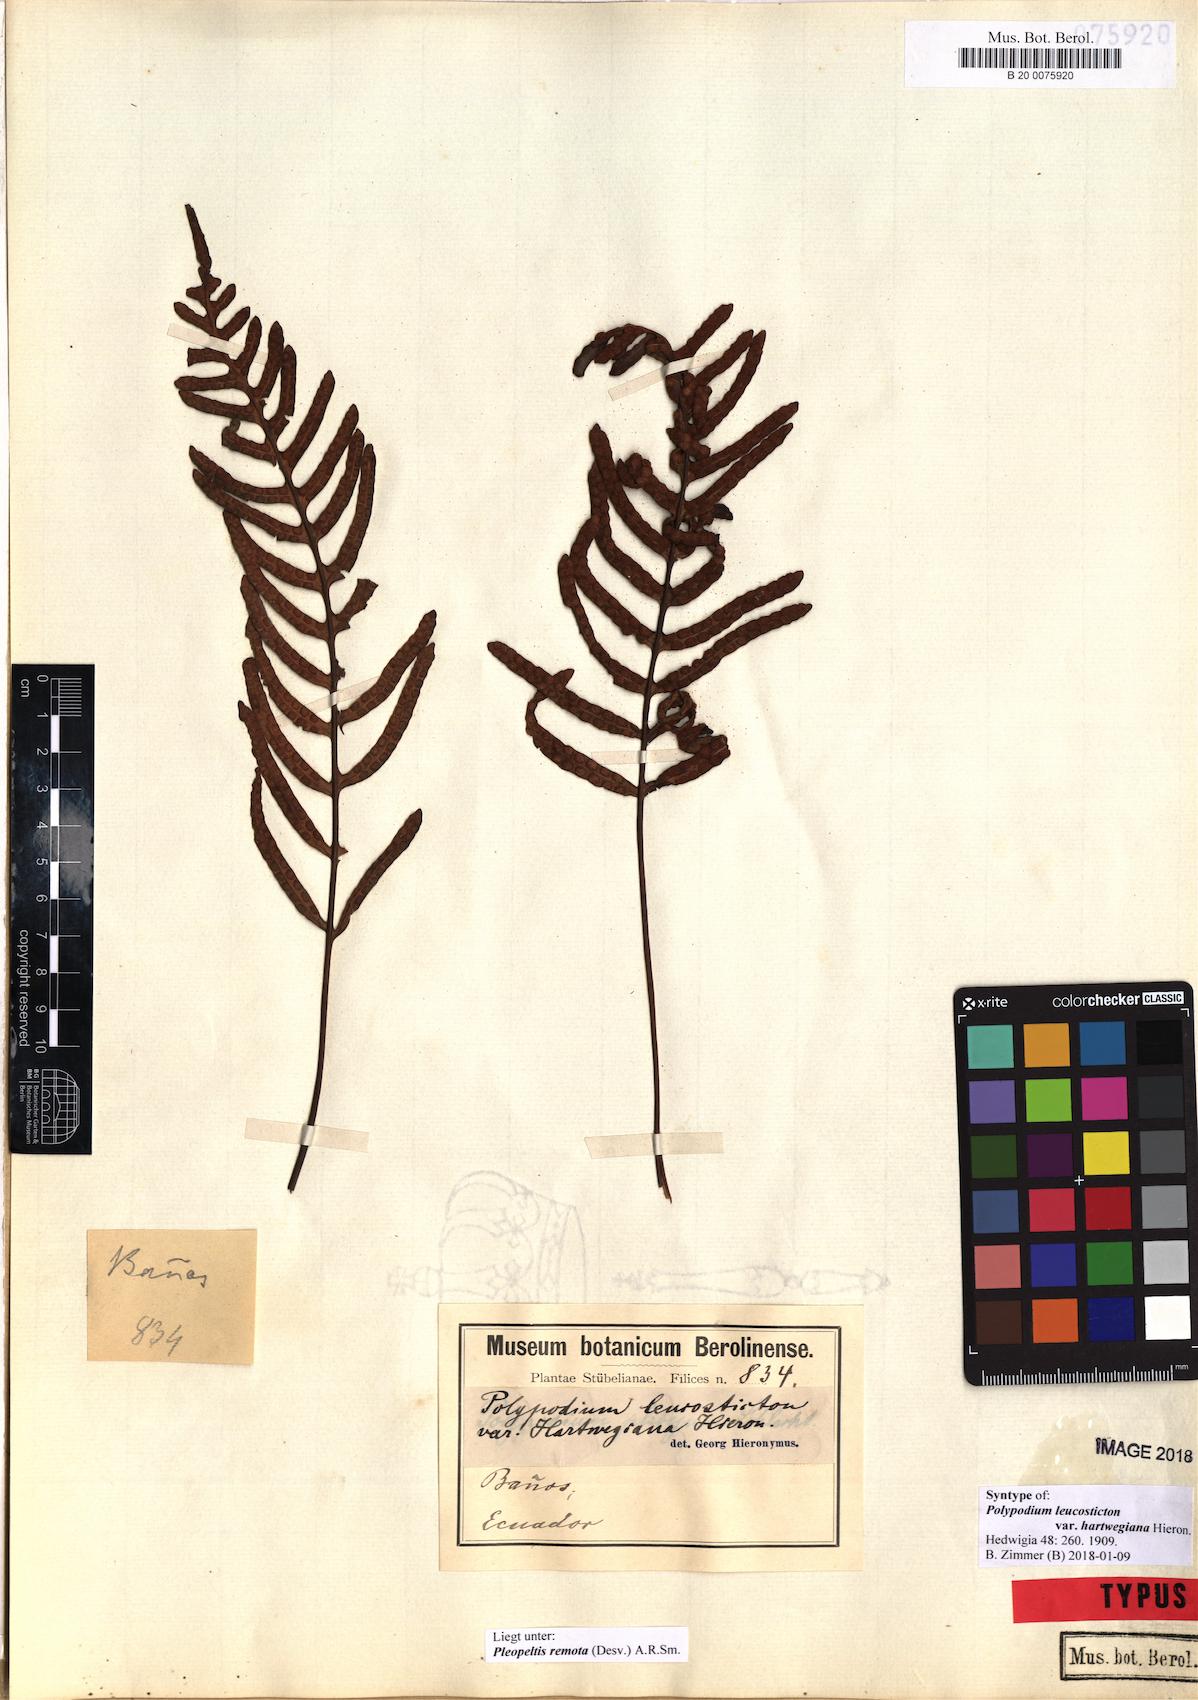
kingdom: Plantae
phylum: Tracheophyta
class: Polypodiopsida
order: Polypodiales
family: Polypodiaceae
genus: Pleopeltis
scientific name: Pleopeltis remota
